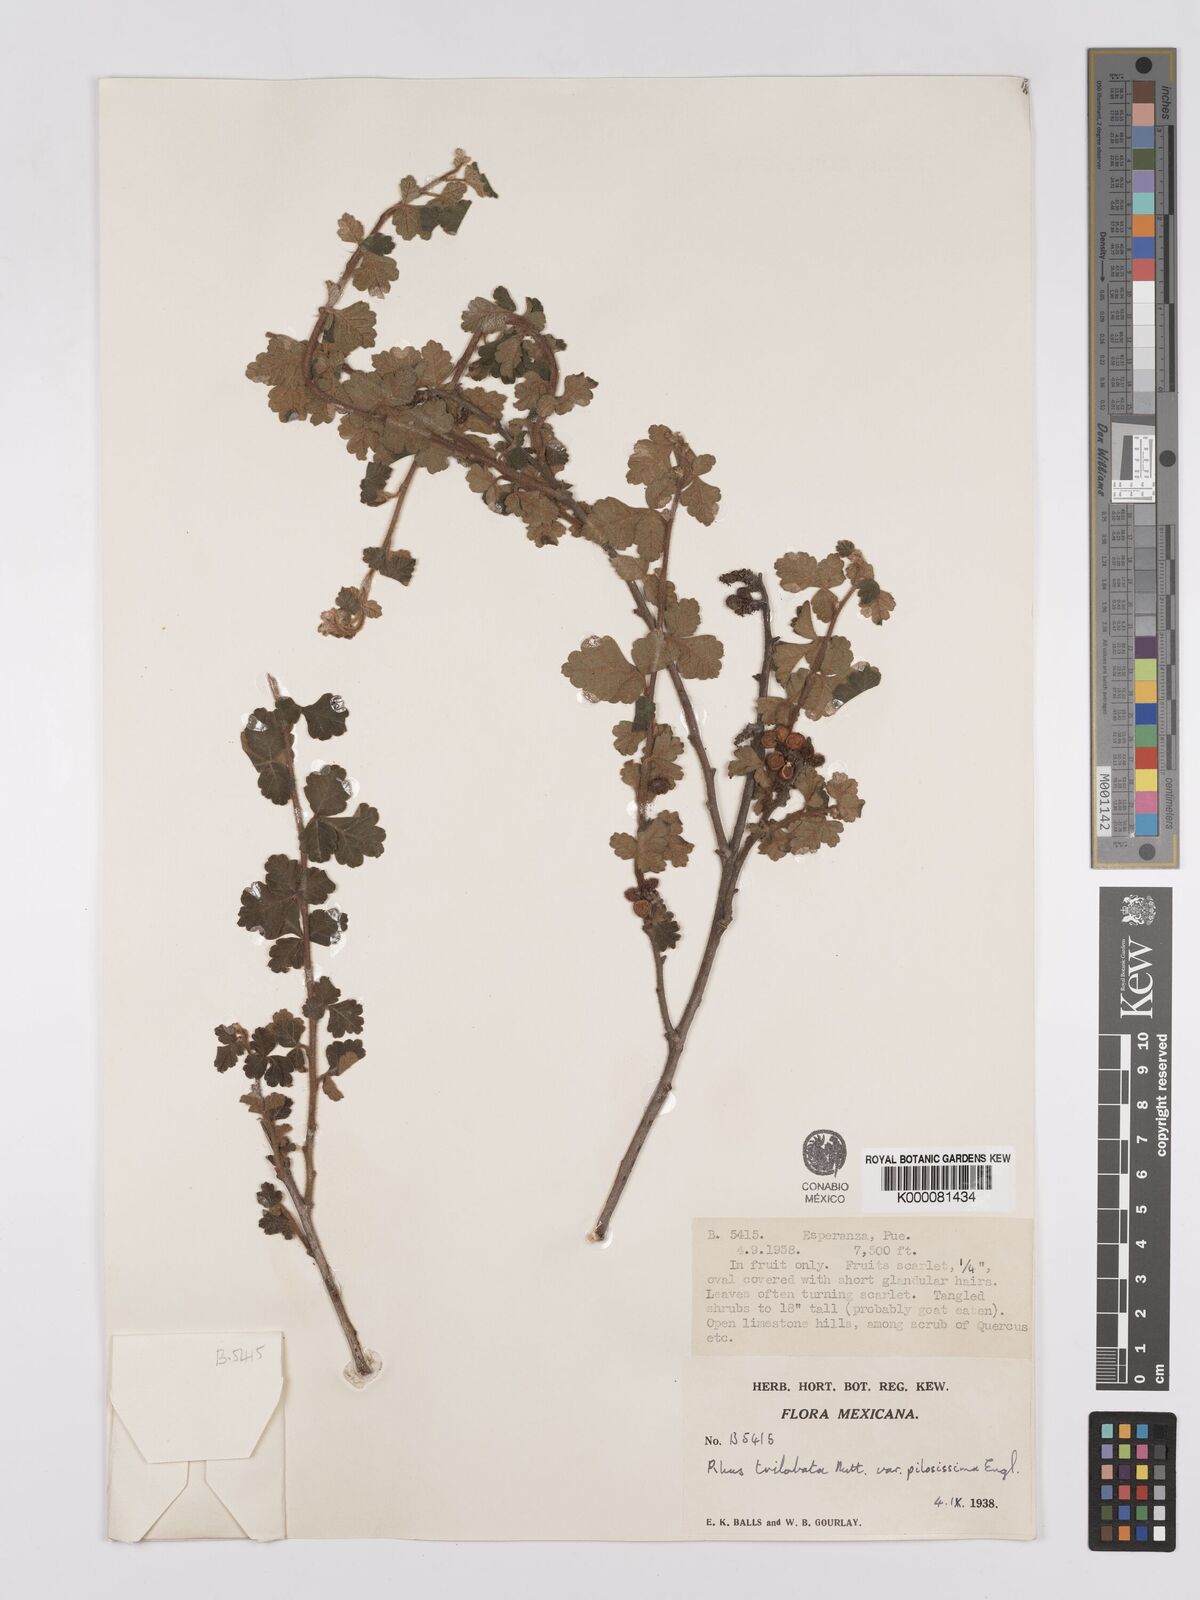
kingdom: Plantae
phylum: Tracheophyta
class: Magnoliopsida
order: Sapindales
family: Anacardiaceae
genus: Rhus
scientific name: Rhus trilobata
